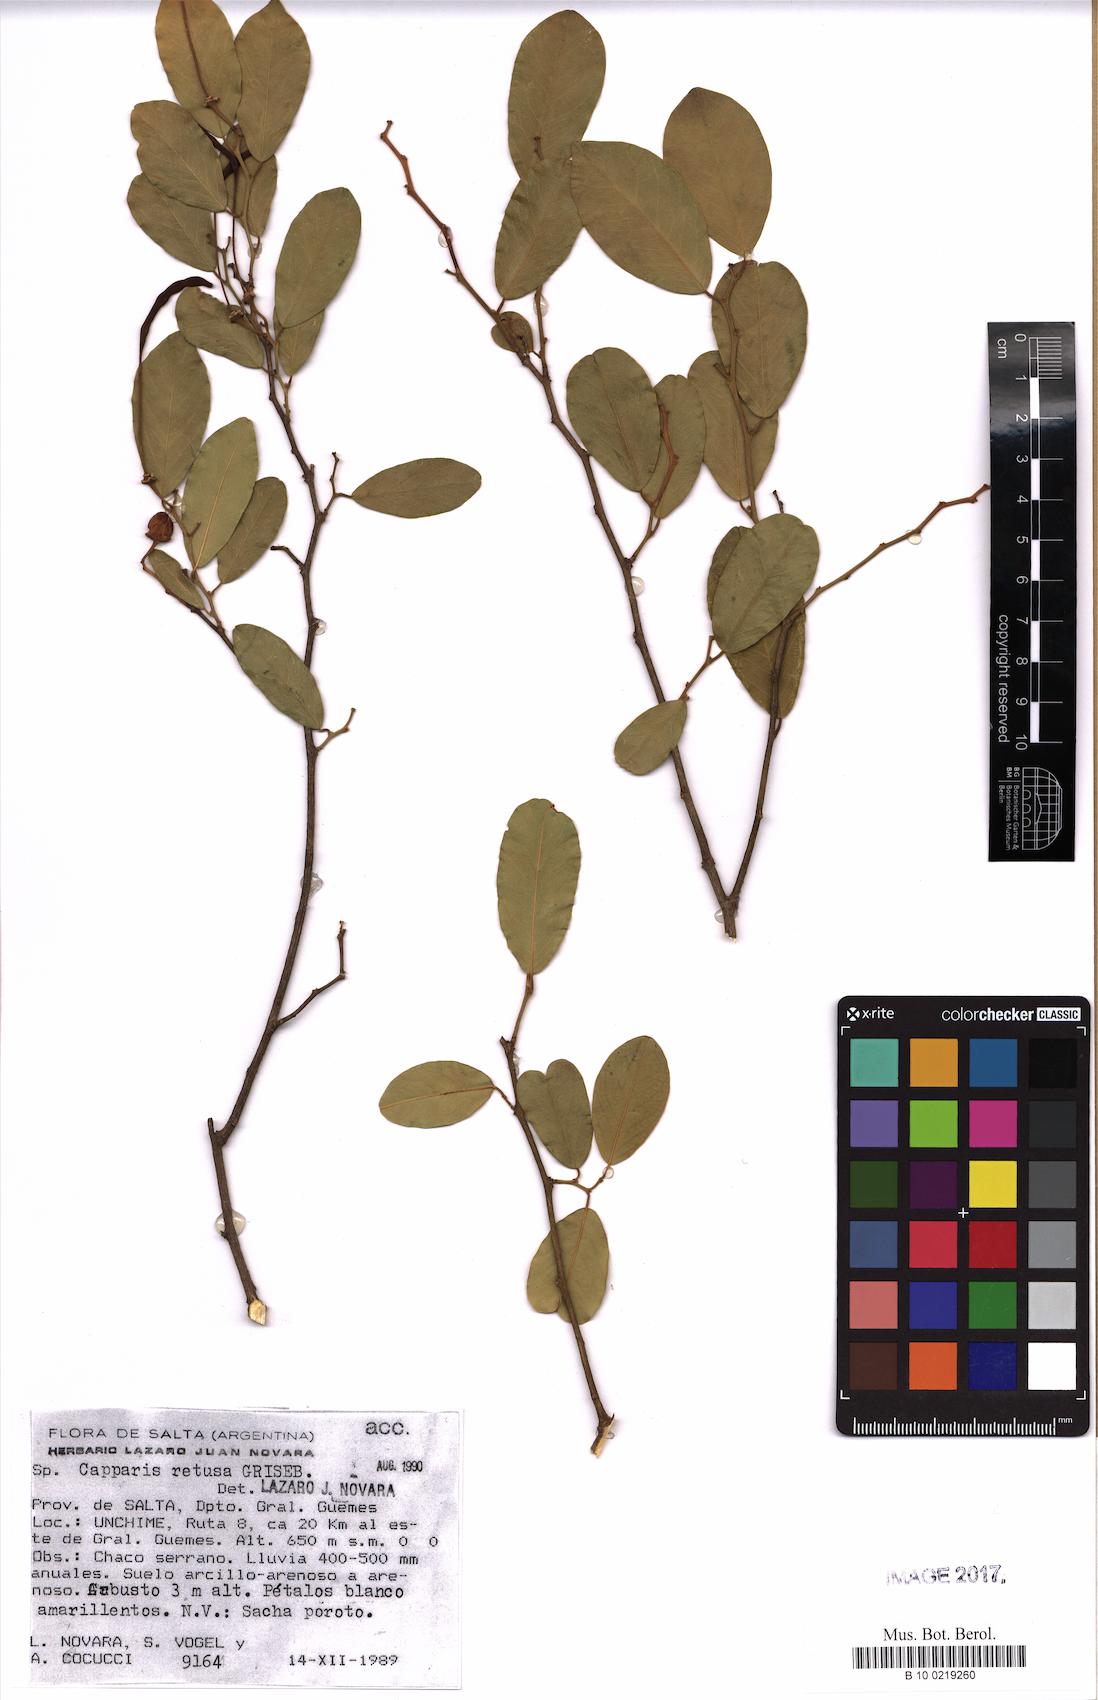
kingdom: Plantae
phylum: Tracheophyta
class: Magnoliopsida
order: Brassicales
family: Capparaceae
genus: Cynophalla
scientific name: Cynophalla retusa
